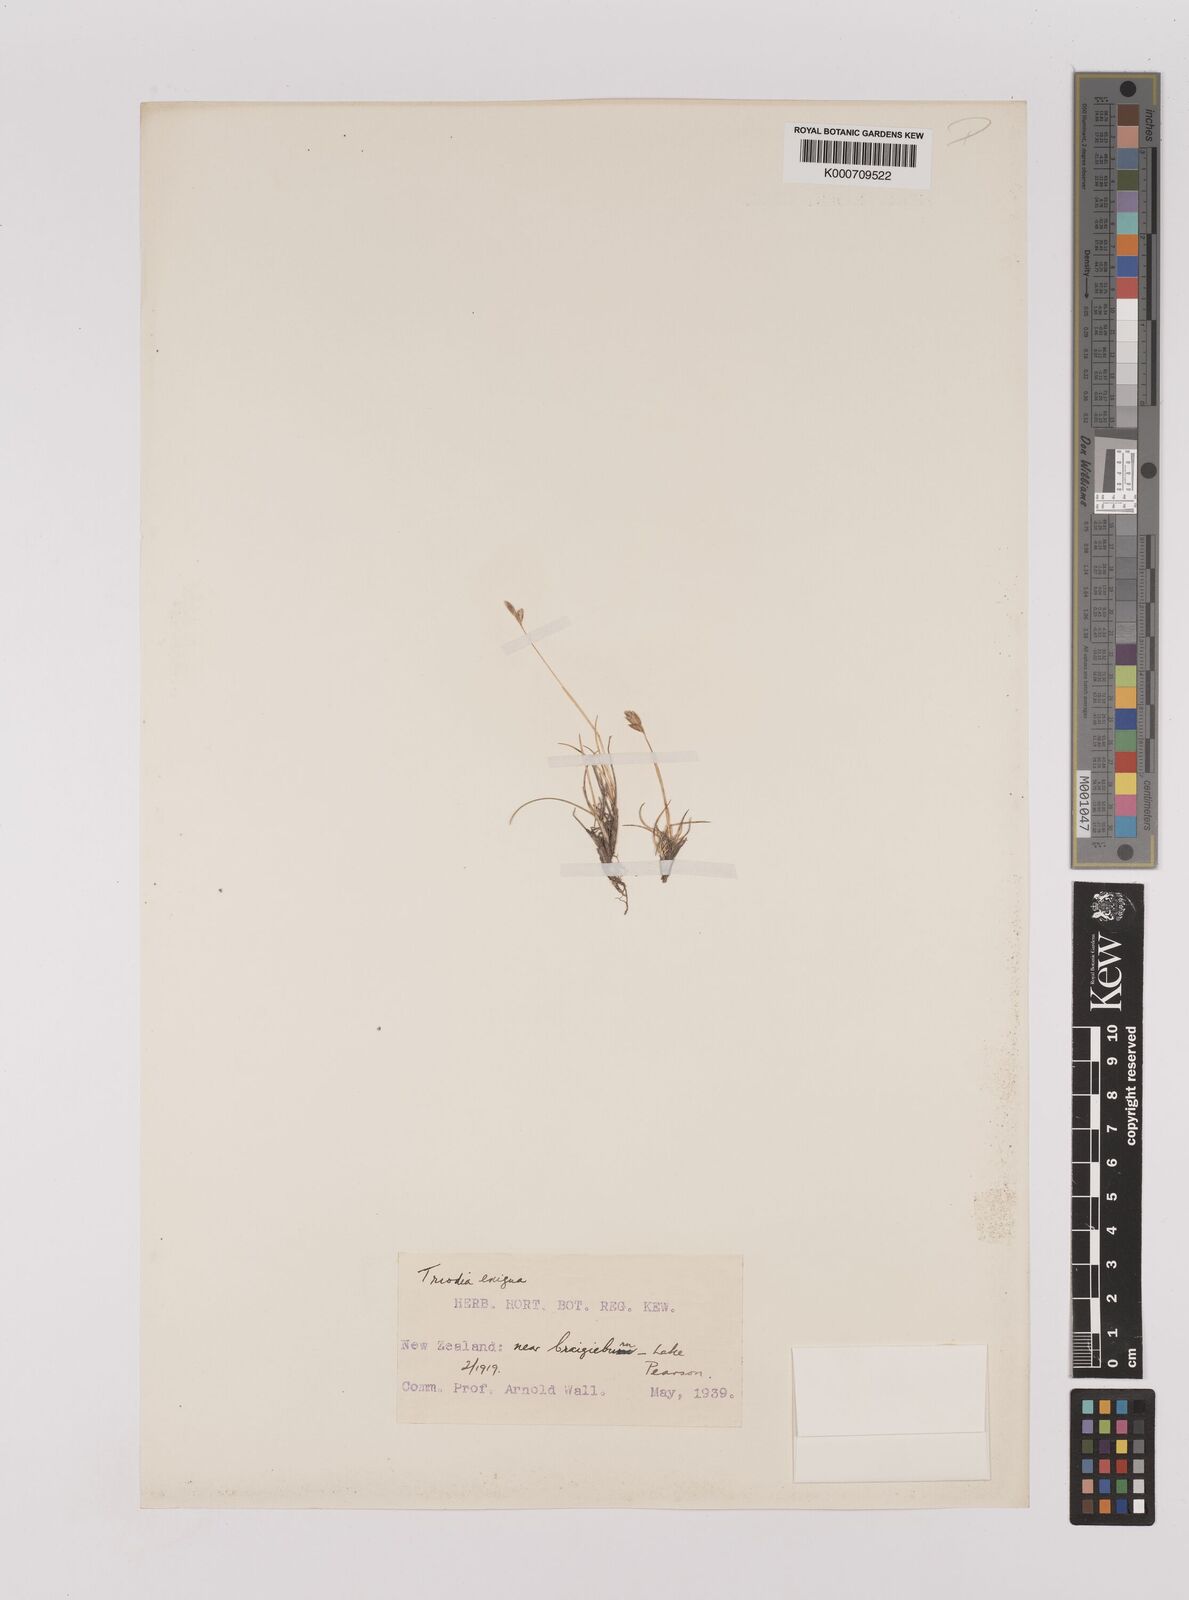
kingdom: Plantae
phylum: Tracheophyta
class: Liliopsida
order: Poales
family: Poaceae
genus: Rytidosperma
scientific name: Rytidosperma exiguum
